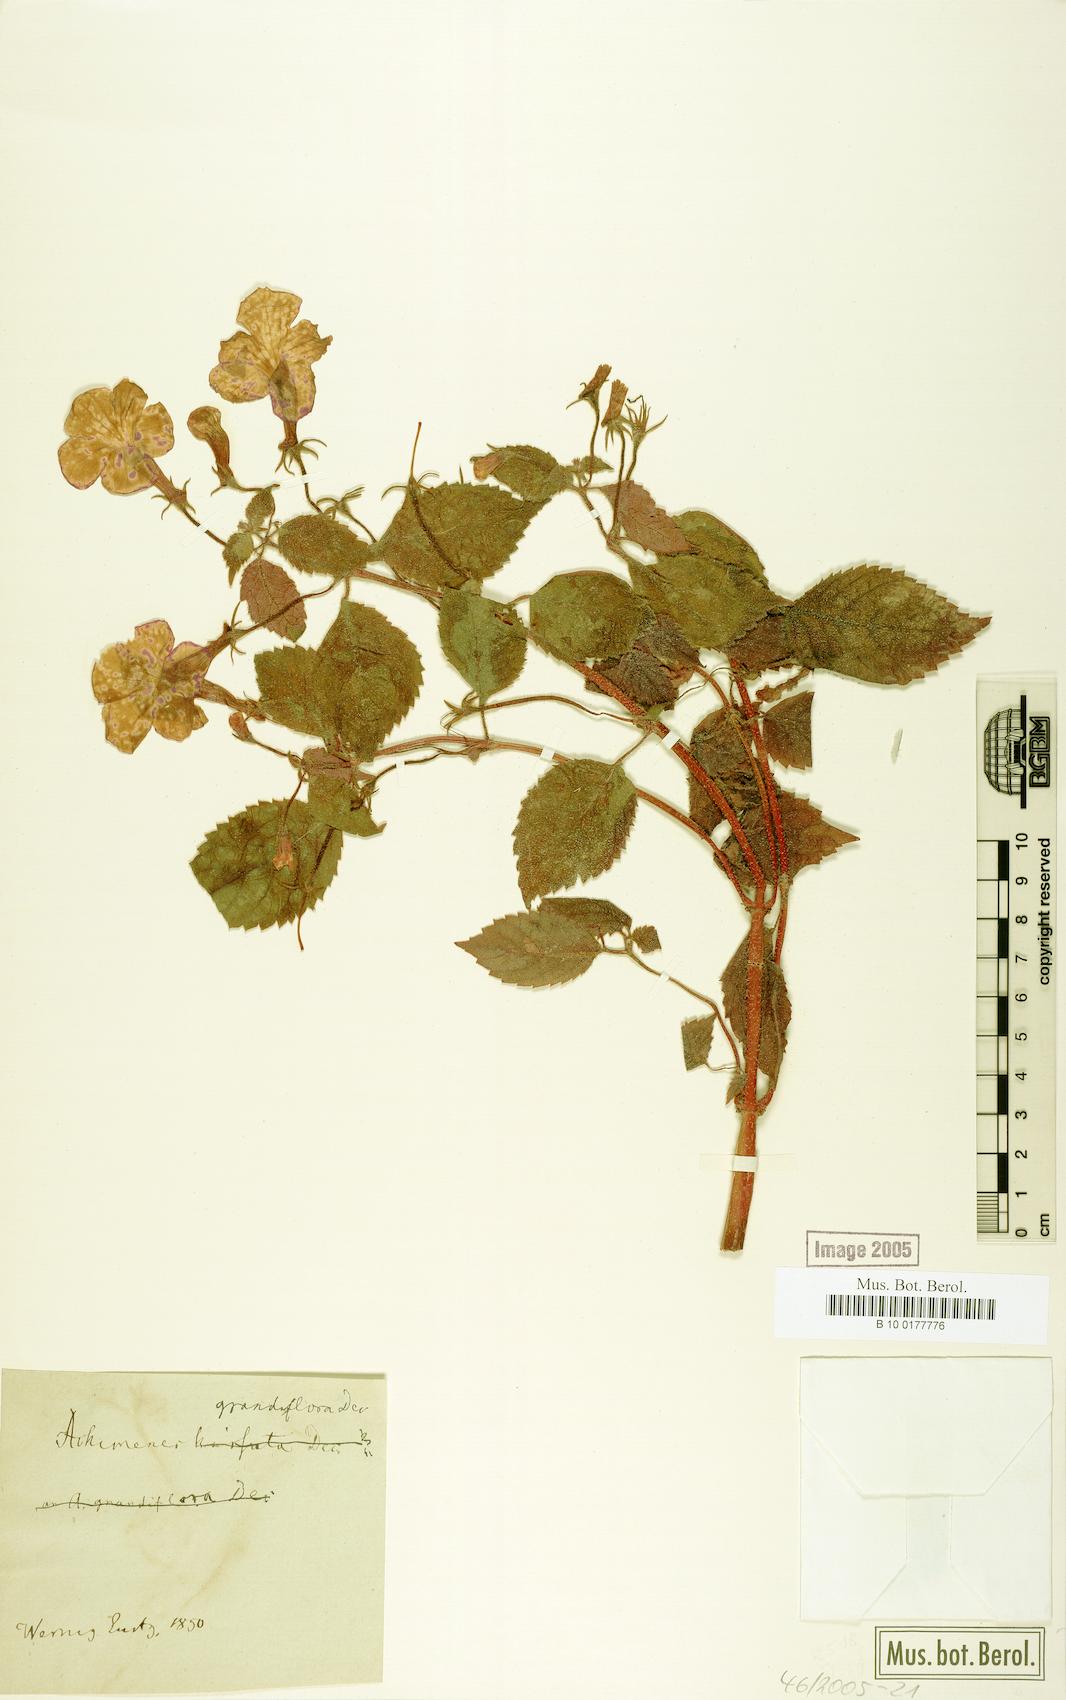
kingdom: Plantae
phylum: Tracheophyta
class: Magnoliopsida
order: Lamiales
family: Gesneriaceae
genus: Achimenes
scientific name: Achimenes grandiflora
